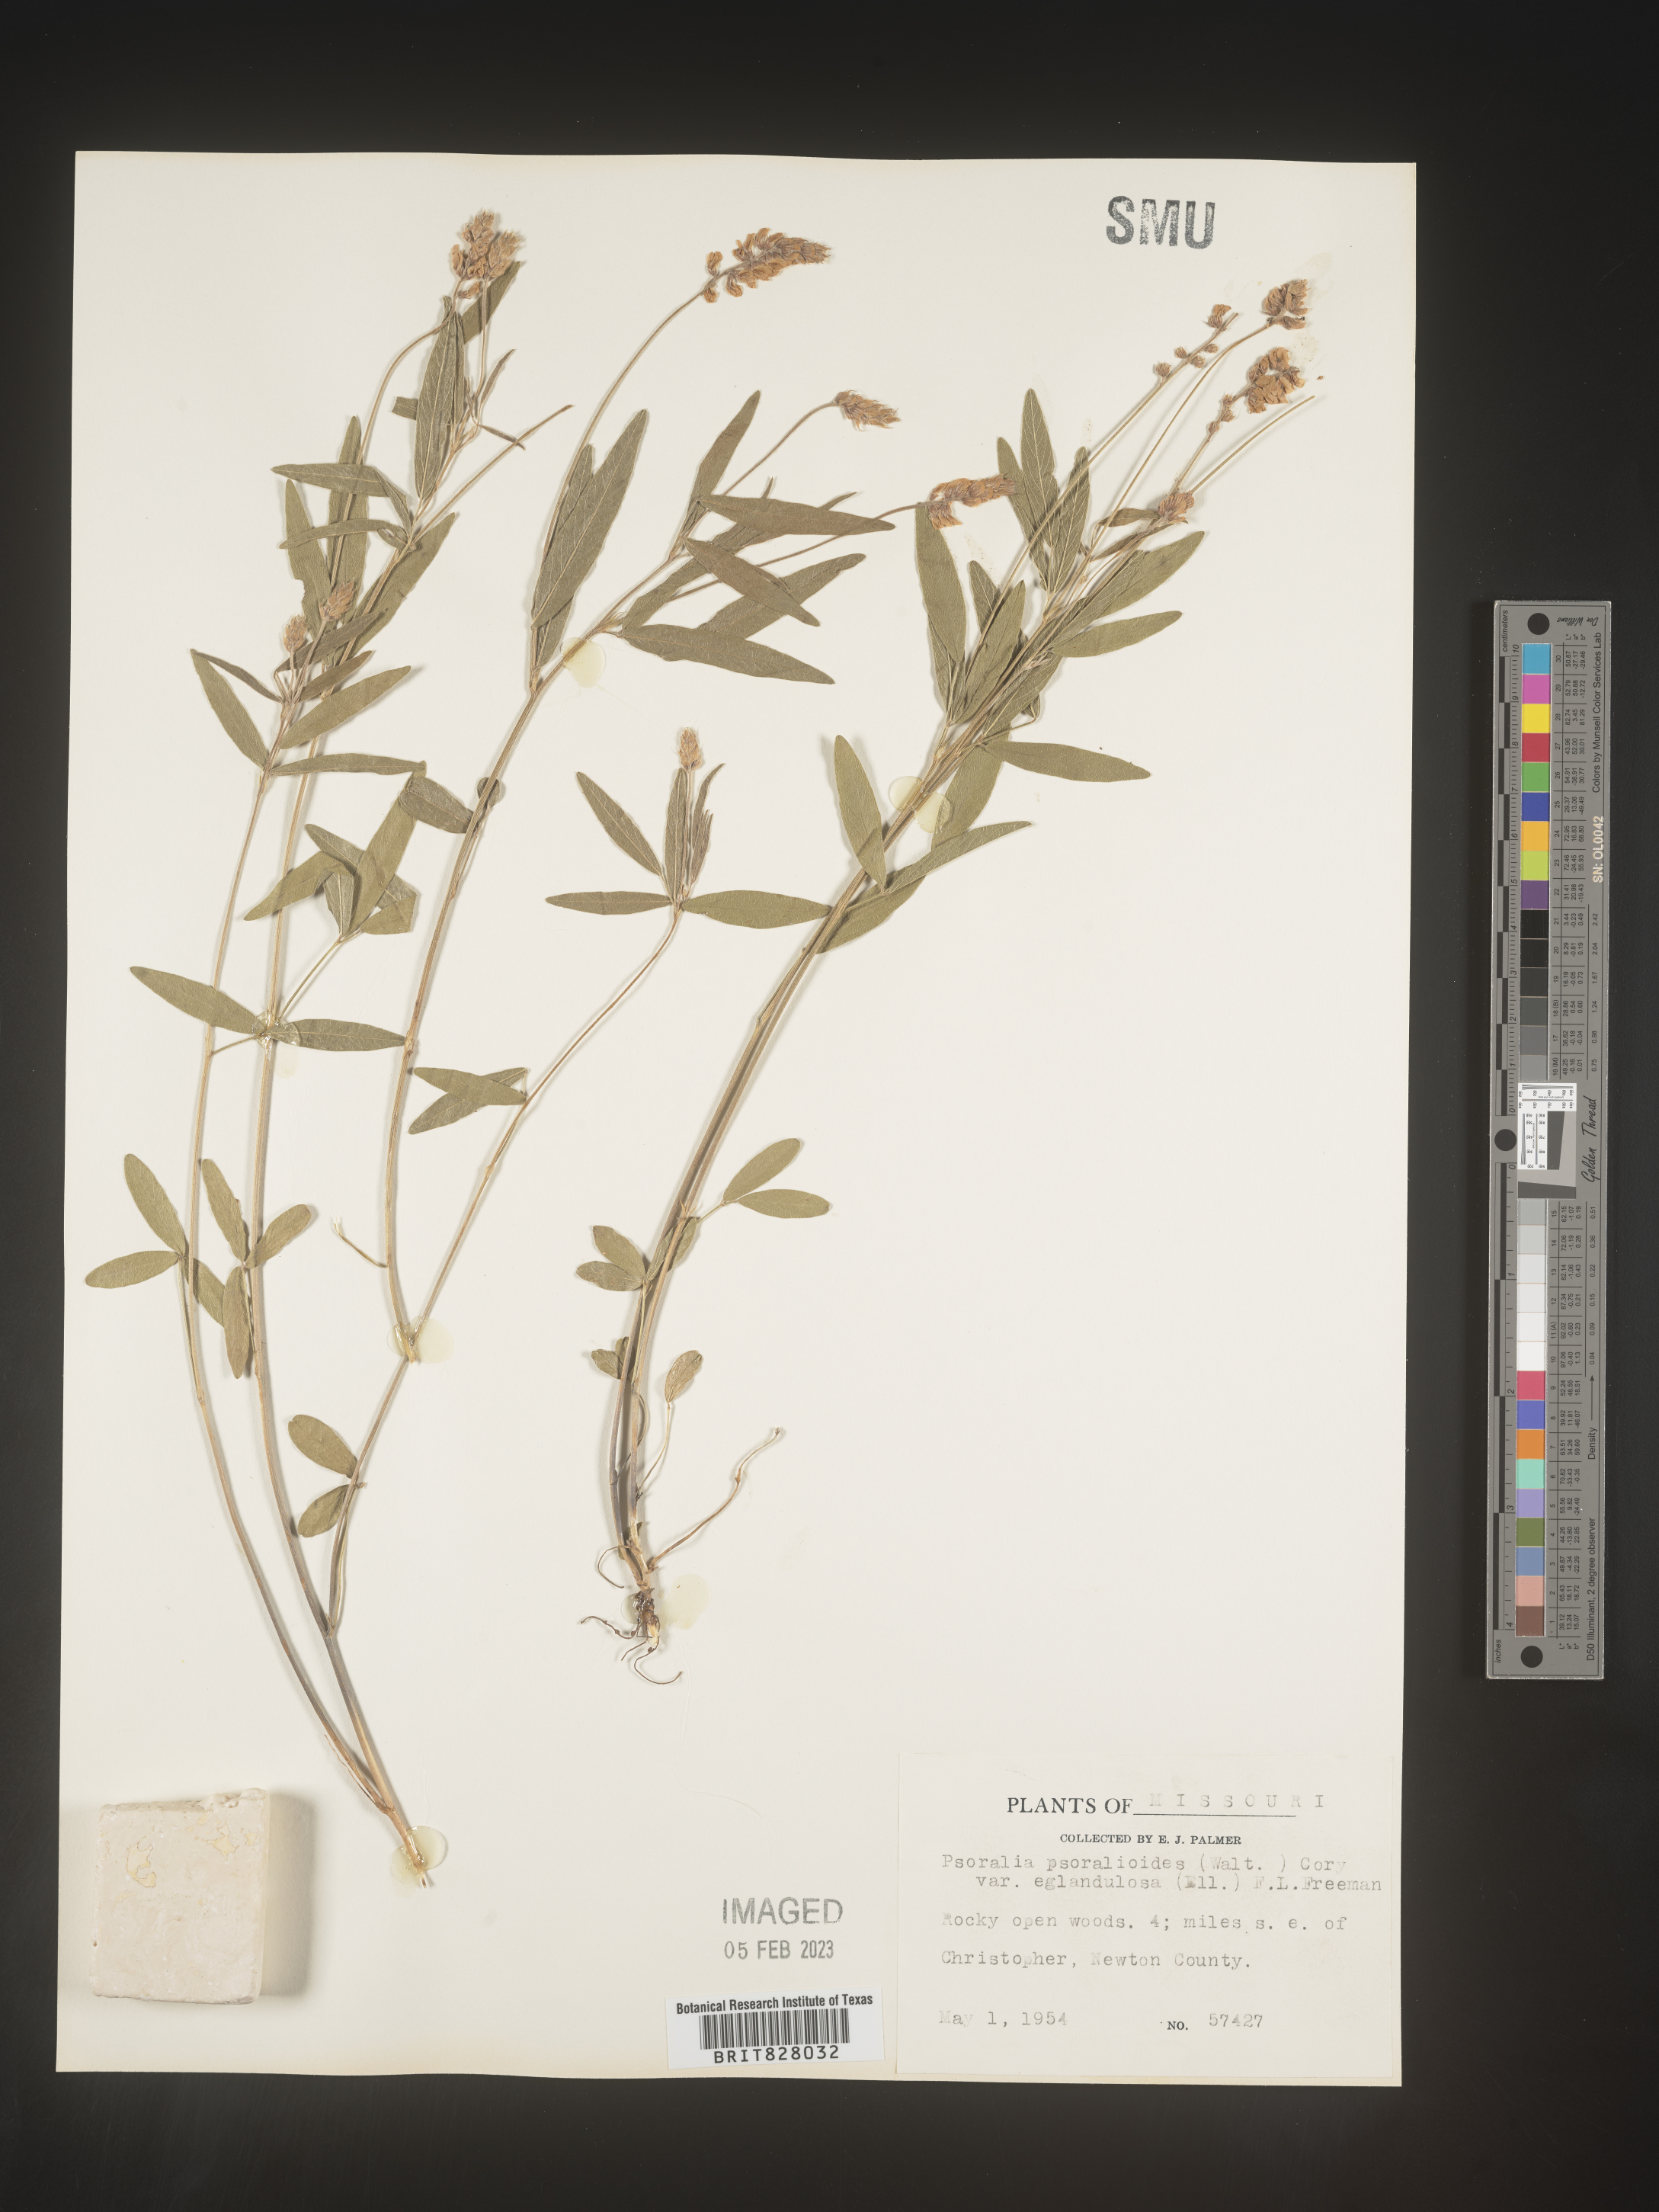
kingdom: Plantae
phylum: Tracheophyta
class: Magnoliopsida
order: Fabales
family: Fabaceae
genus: Orbexilum
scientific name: Orbexilum pedunculatum
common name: Sampson's snakeroot
